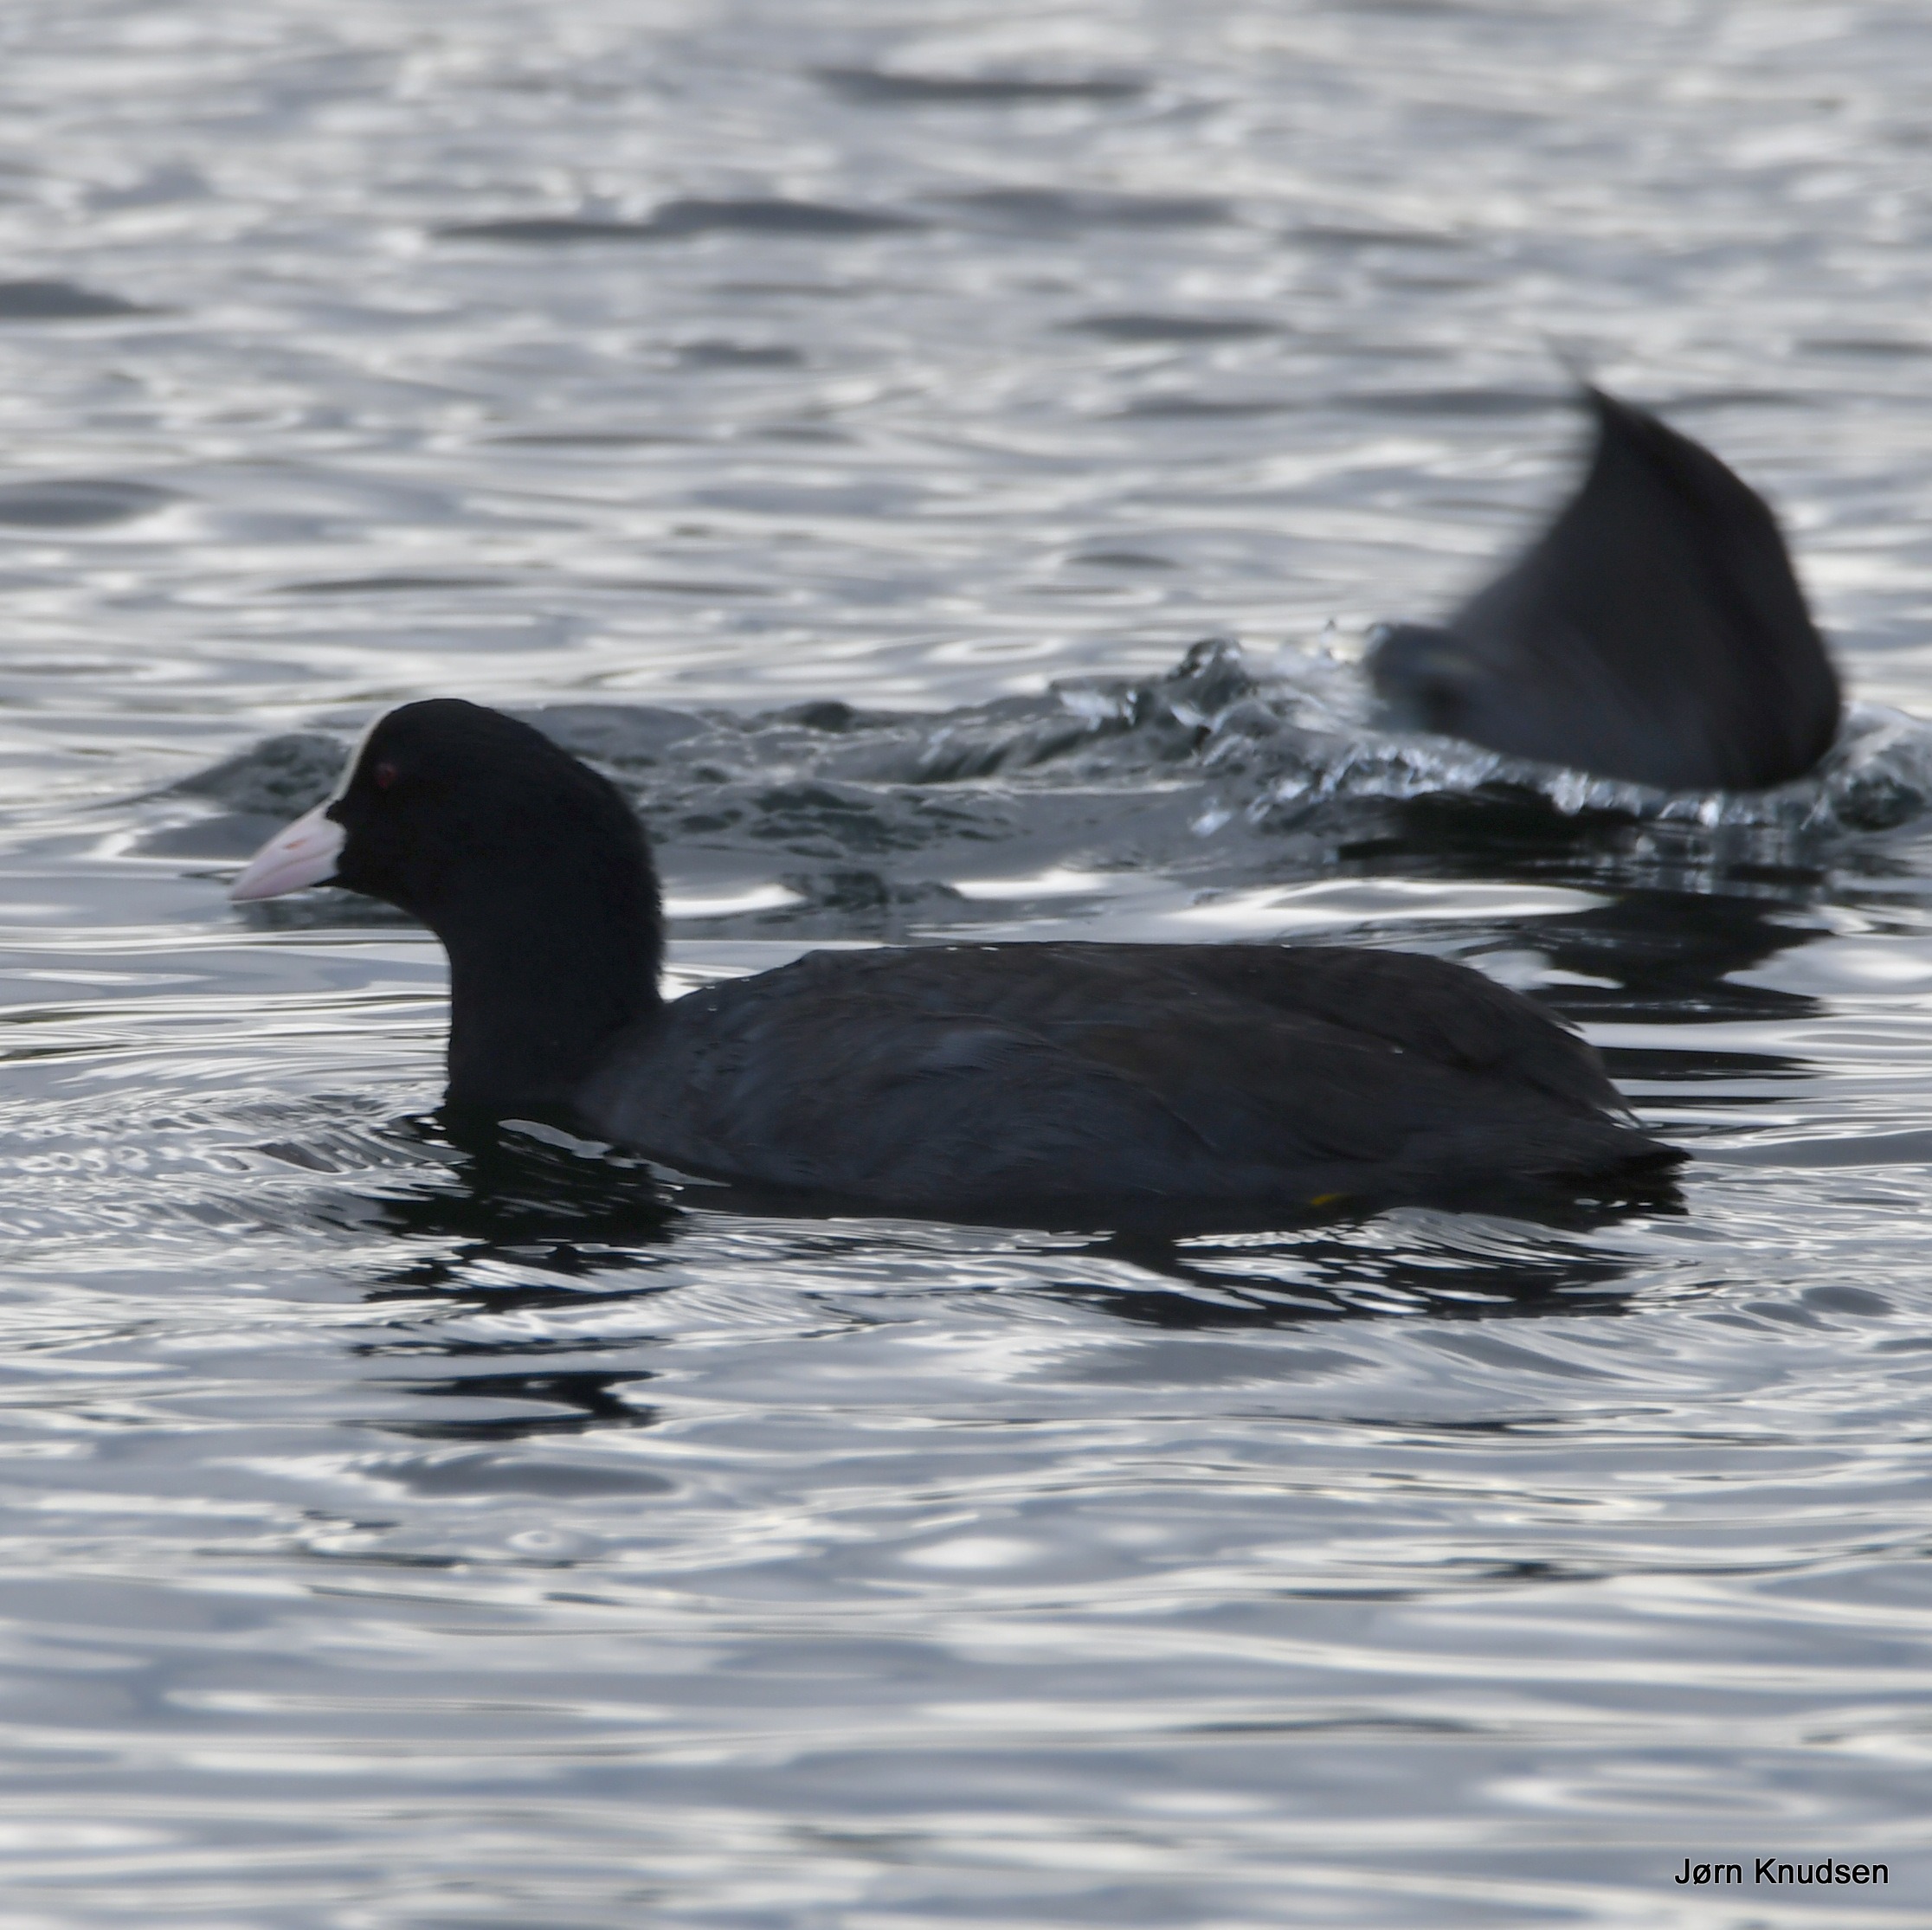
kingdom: Animalia
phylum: Chordata
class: Aves
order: Gruiformes
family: Rallidae
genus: Fulica
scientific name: Fulica atra
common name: Blishøne
